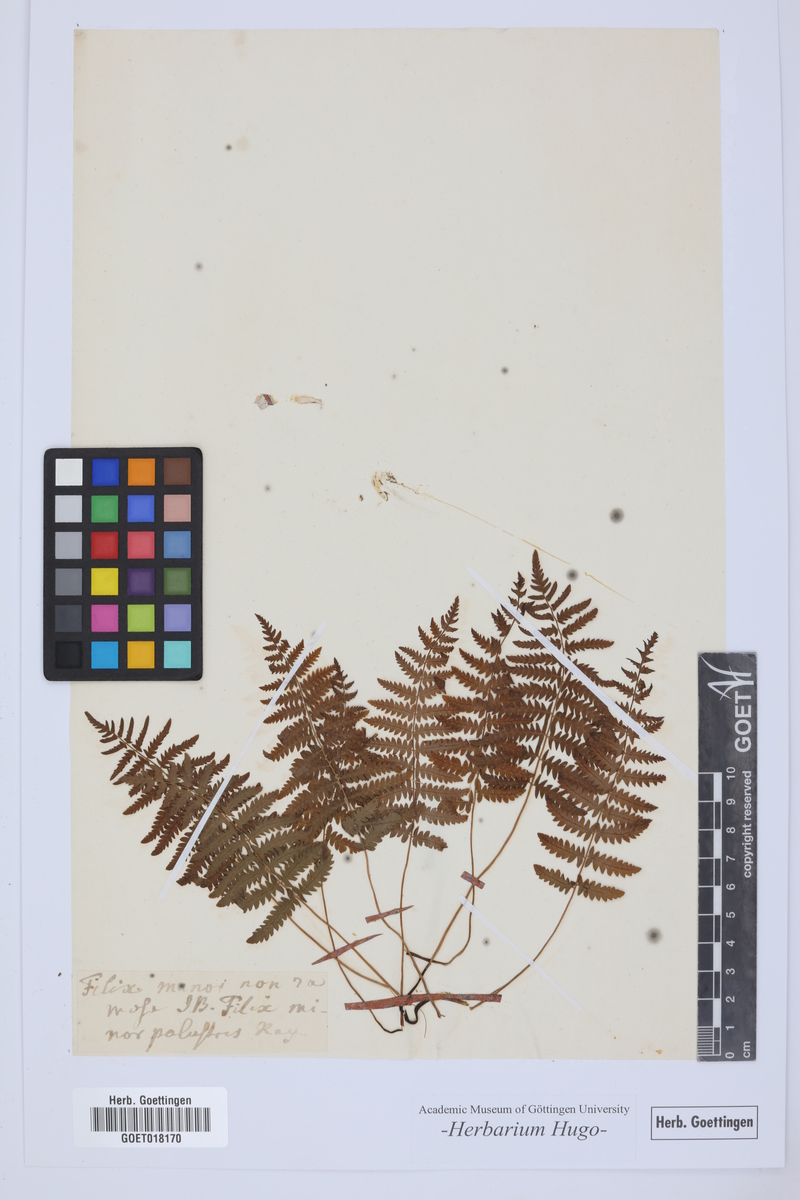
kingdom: Plantae
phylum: Tracheophyta
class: Polypodiopsida
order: Polypodiales
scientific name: Polypodiales
